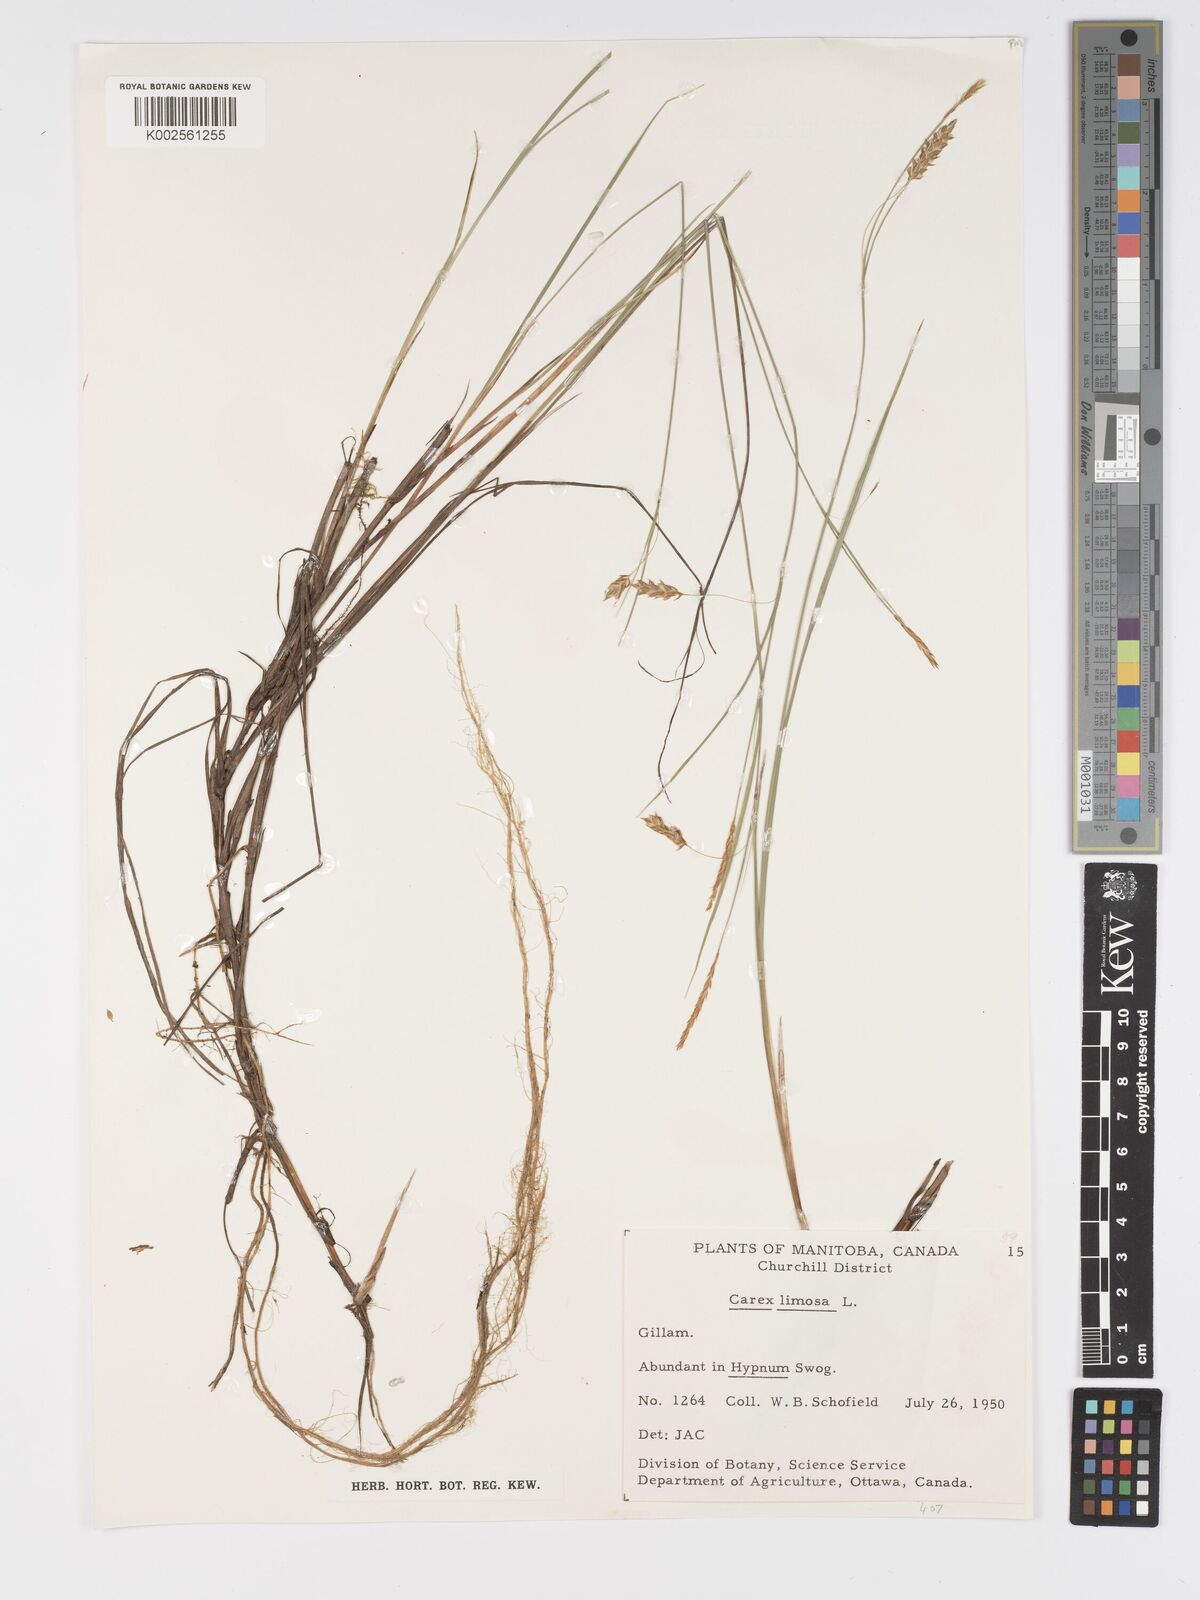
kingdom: Plantae
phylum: Tracheophyta
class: Liliopsida
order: Poales
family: Cyperaceae
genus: Carex
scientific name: Carex limosa
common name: Bog sedge
